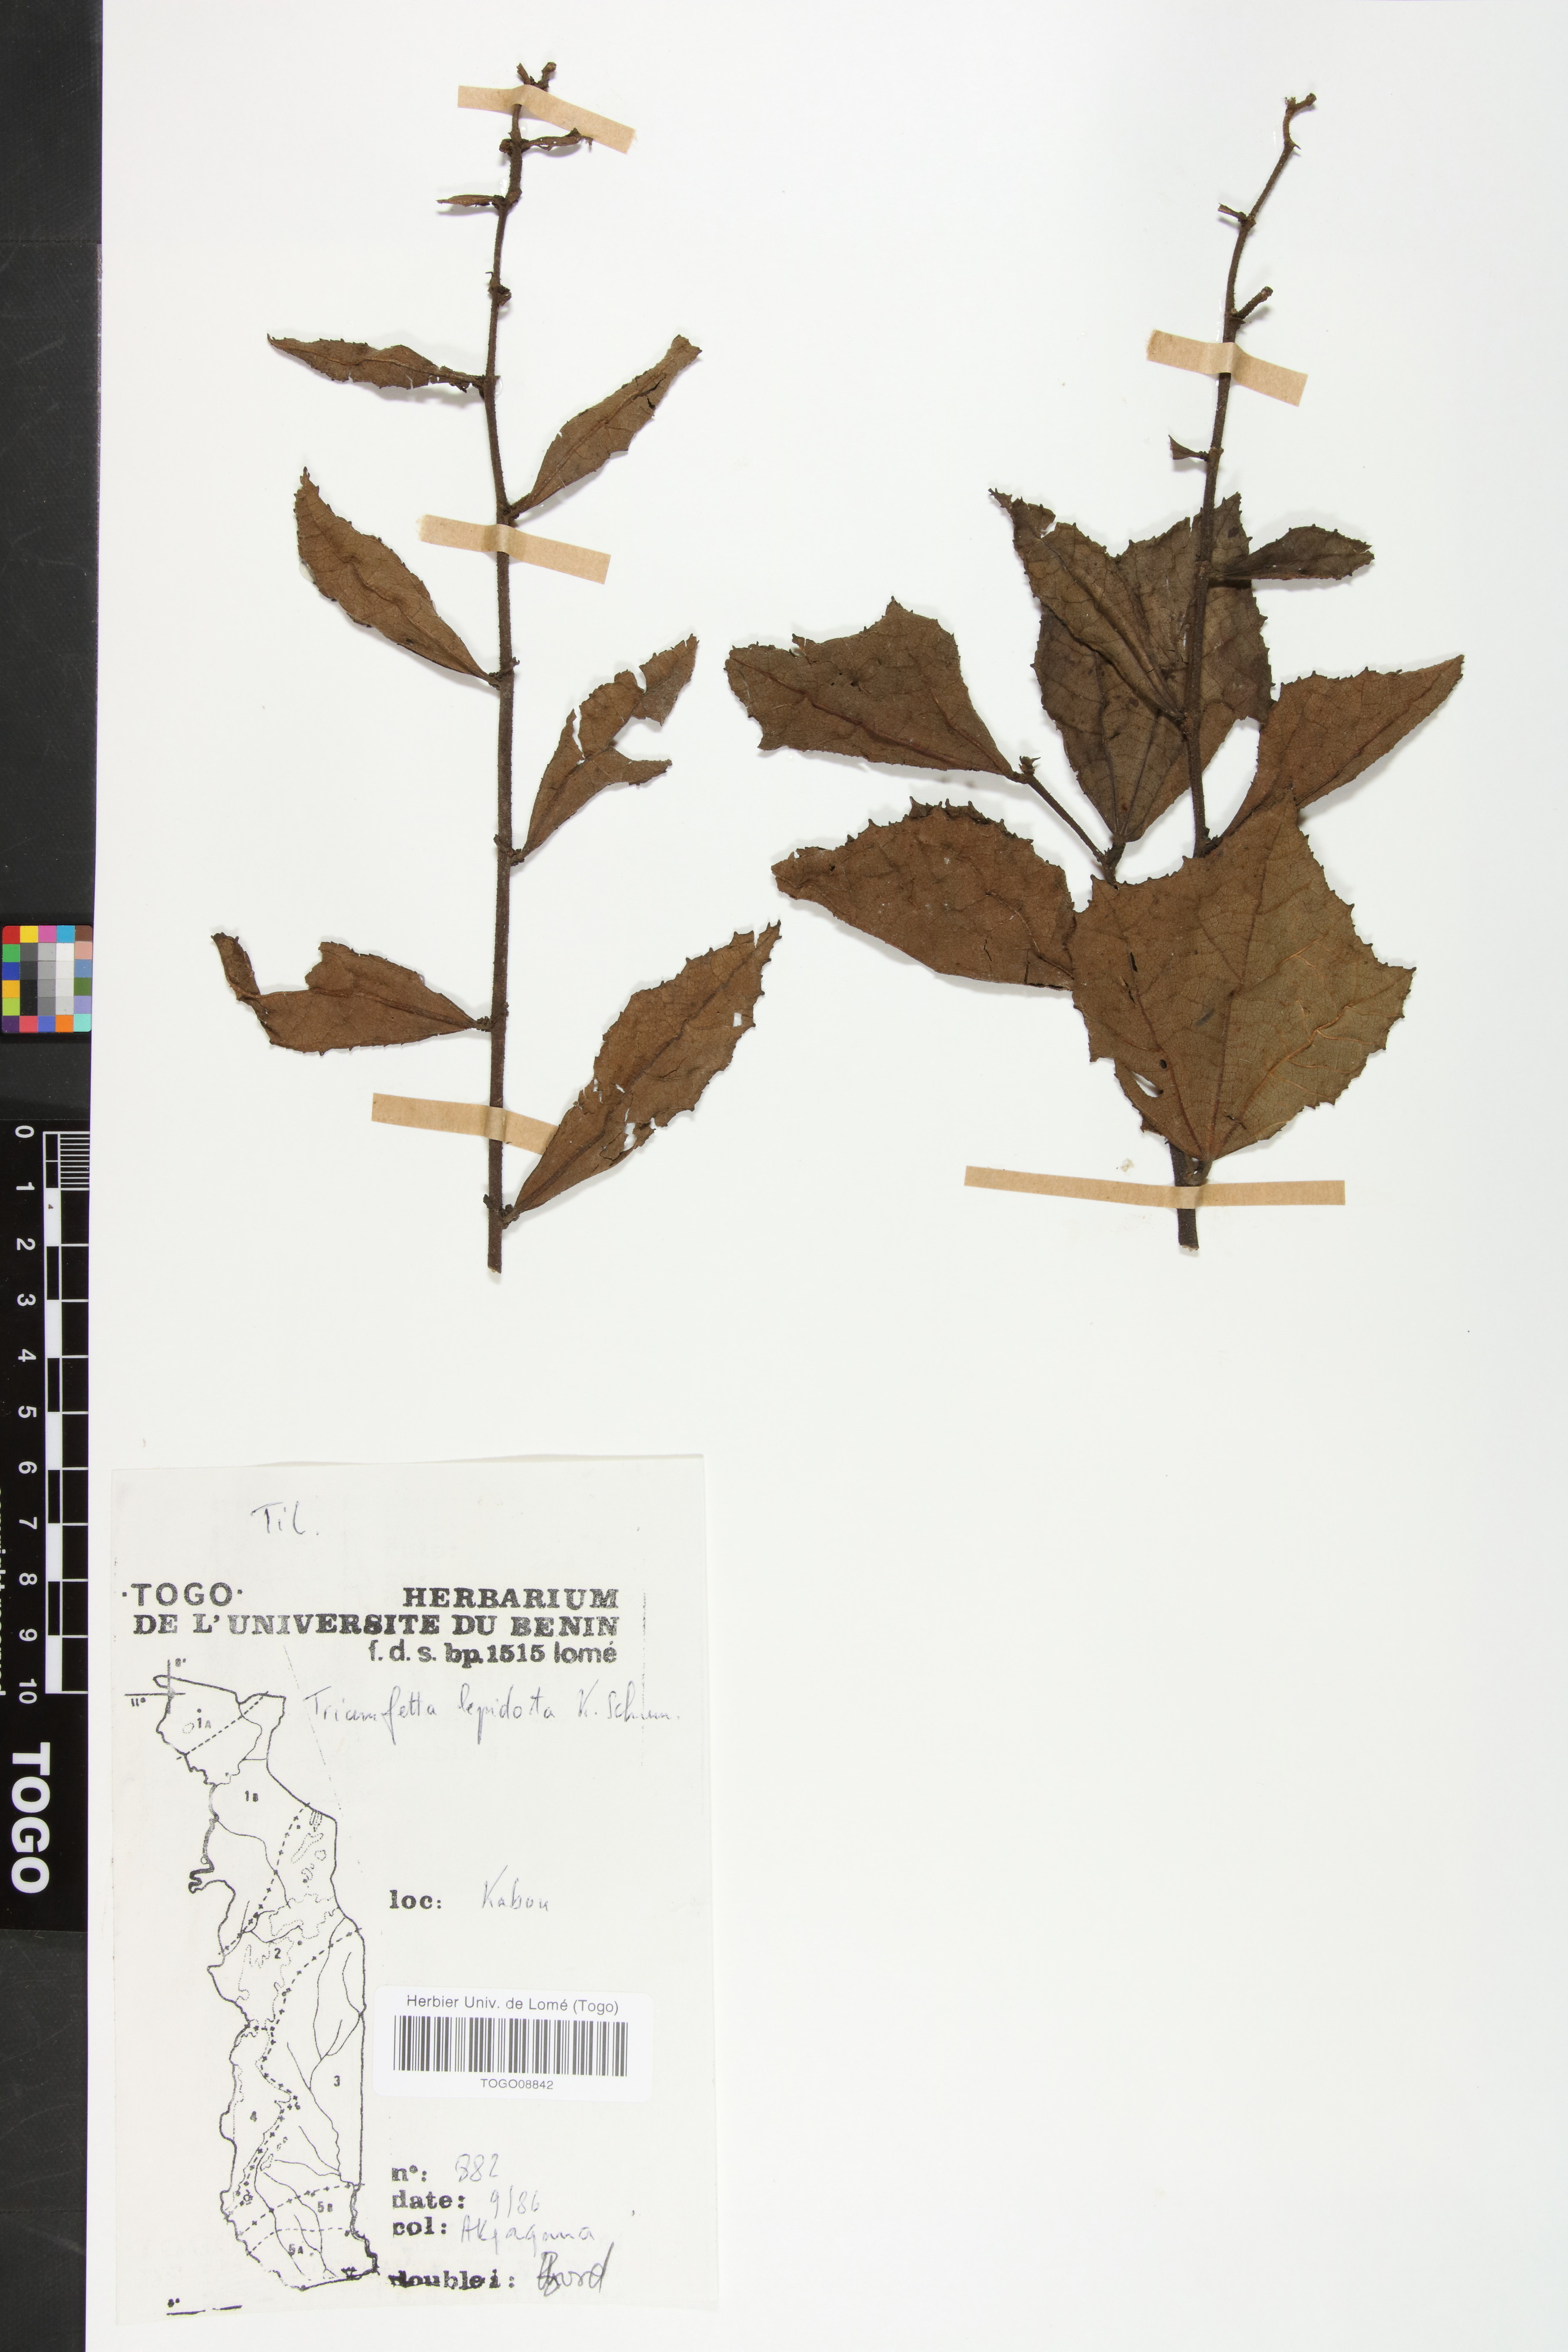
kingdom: Plantae
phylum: Tracheophyta
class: Magnoliopsida
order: Malvales
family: Malvaceae
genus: Triumfetta
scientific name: Triumfetta lepidota
